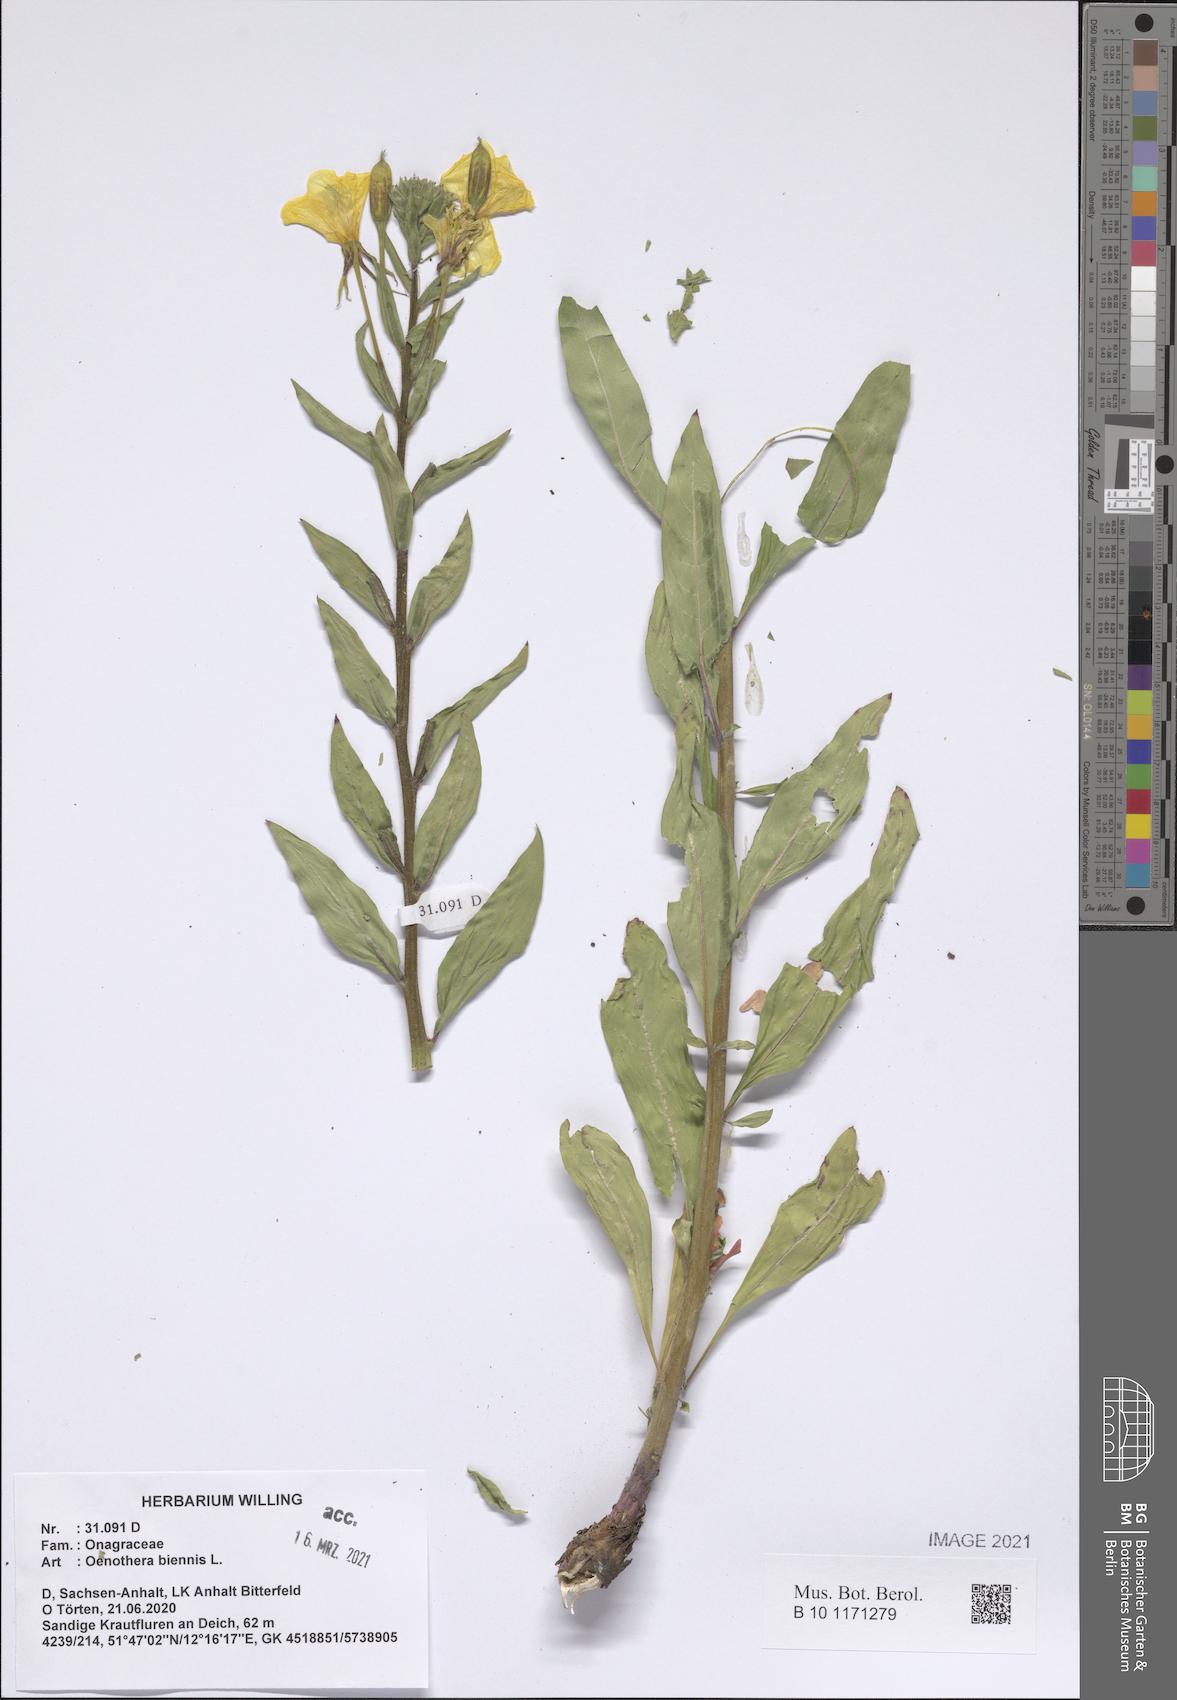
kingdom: Plantae
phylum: Tracheophyta
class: Magnoliopsida
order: Myrtales
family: Onagraceae
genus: Oenothera
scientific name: Oenothera biennis
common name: Common evening-primrose
